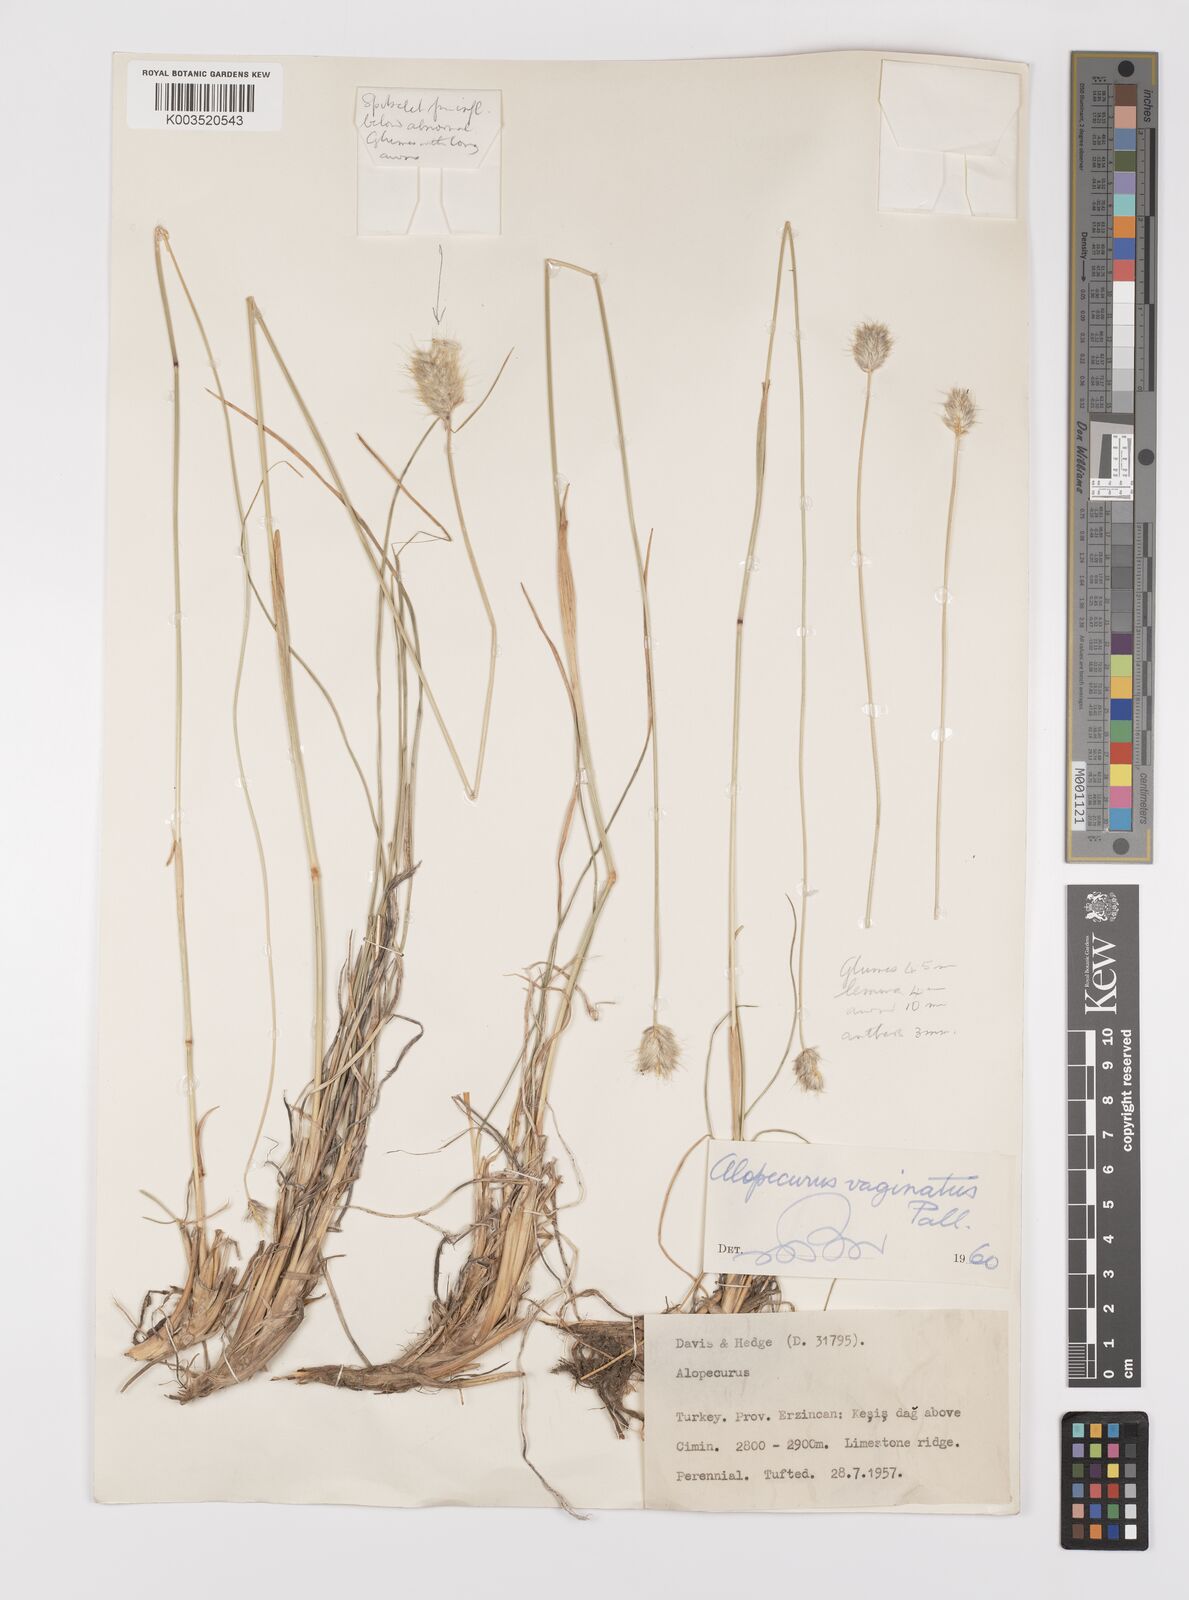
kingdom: Plantae
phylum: Tracheophyta
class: Liliopsida
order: Poales
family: Poaceae
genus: Alopecurus
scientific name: Alopecurus textilis
